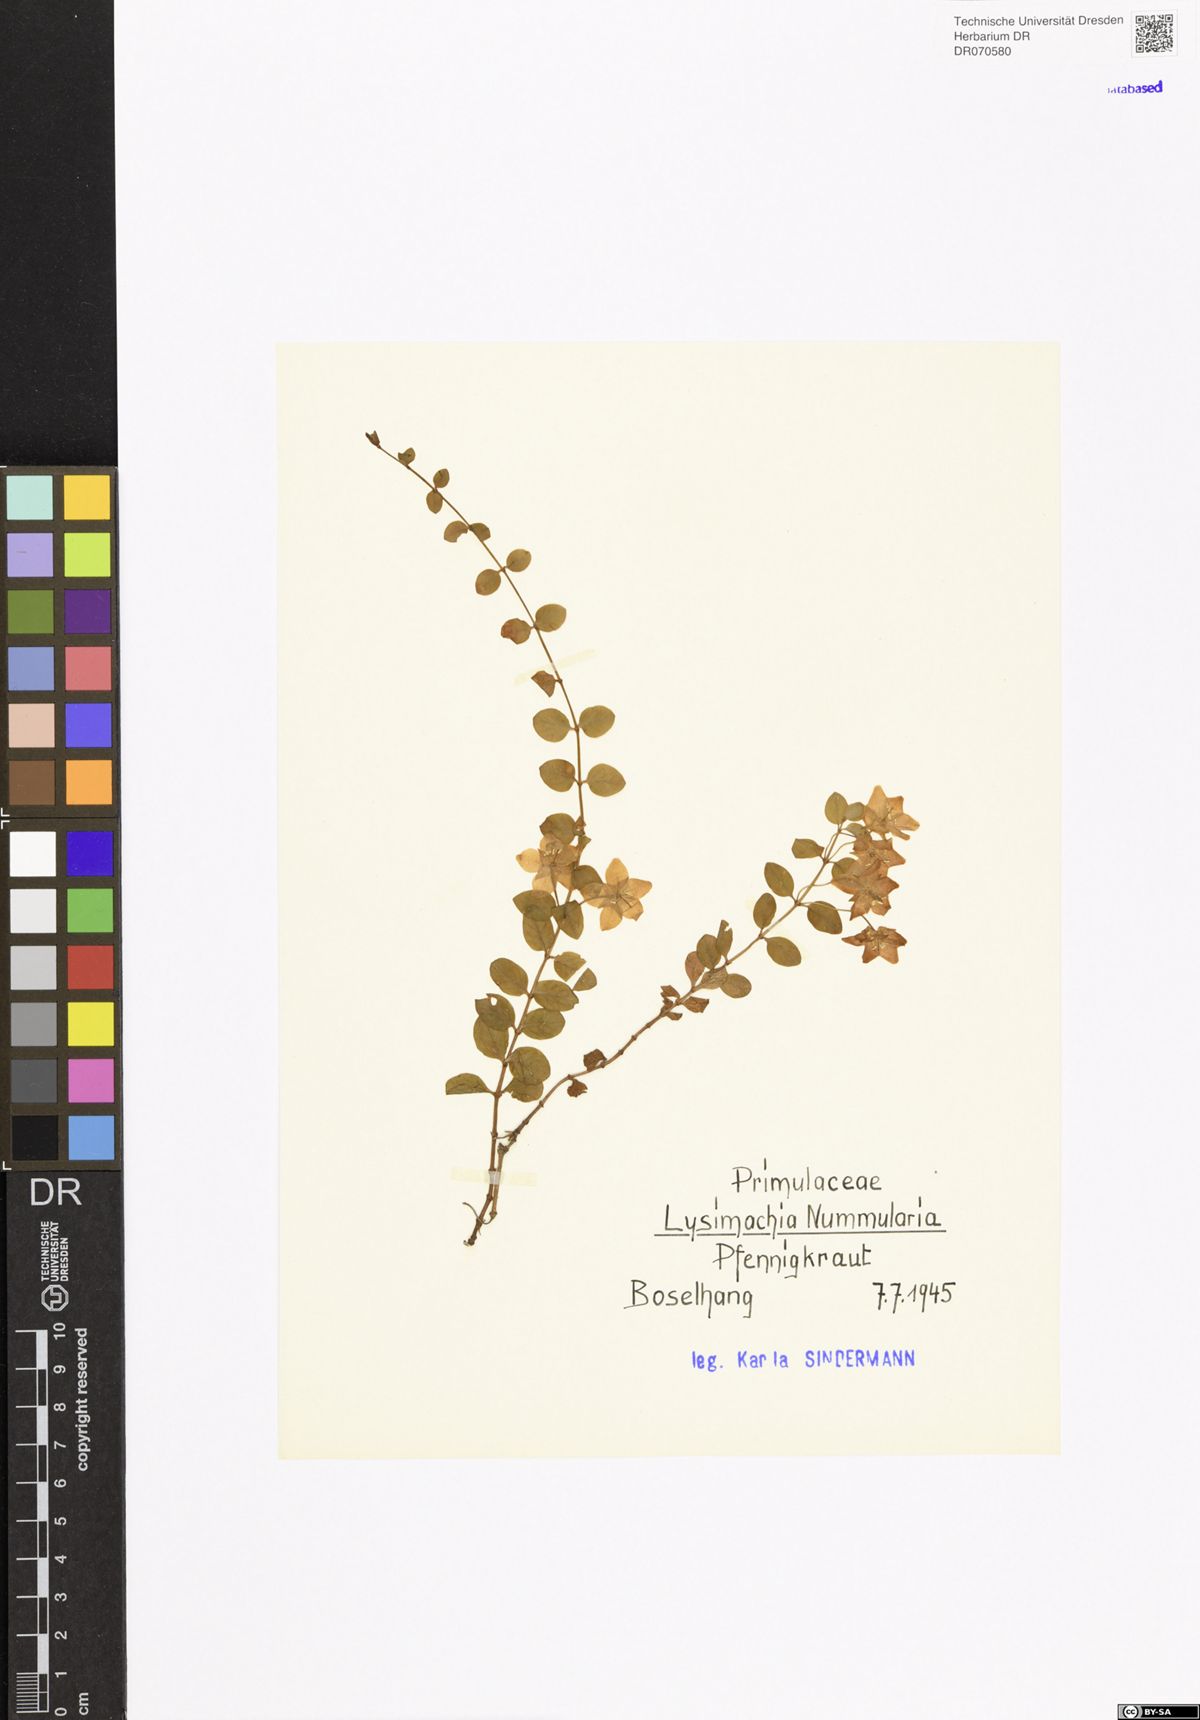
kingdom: Plantae
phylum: Tracheophyta
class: Magnoliopsida
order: Ericales
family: Primulaceae
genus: Lysimachia
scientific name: Lysimachia nummularia
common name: Moneywort
